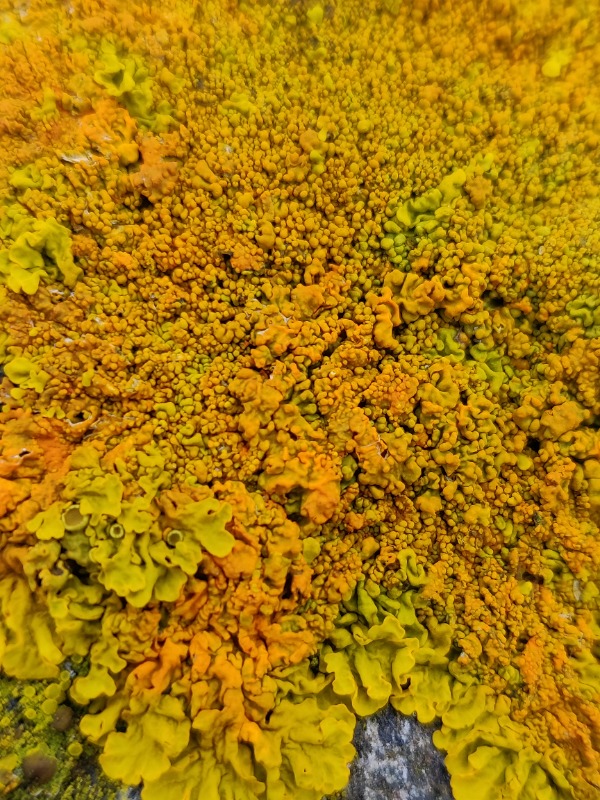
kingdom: Fungi
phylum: Ascomycota
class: Lecanoromycetes
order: Teloschistales
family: Teloschistaceae
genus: Xanthoria
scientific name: Xanthoria calcicola
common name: vortet væggelav
